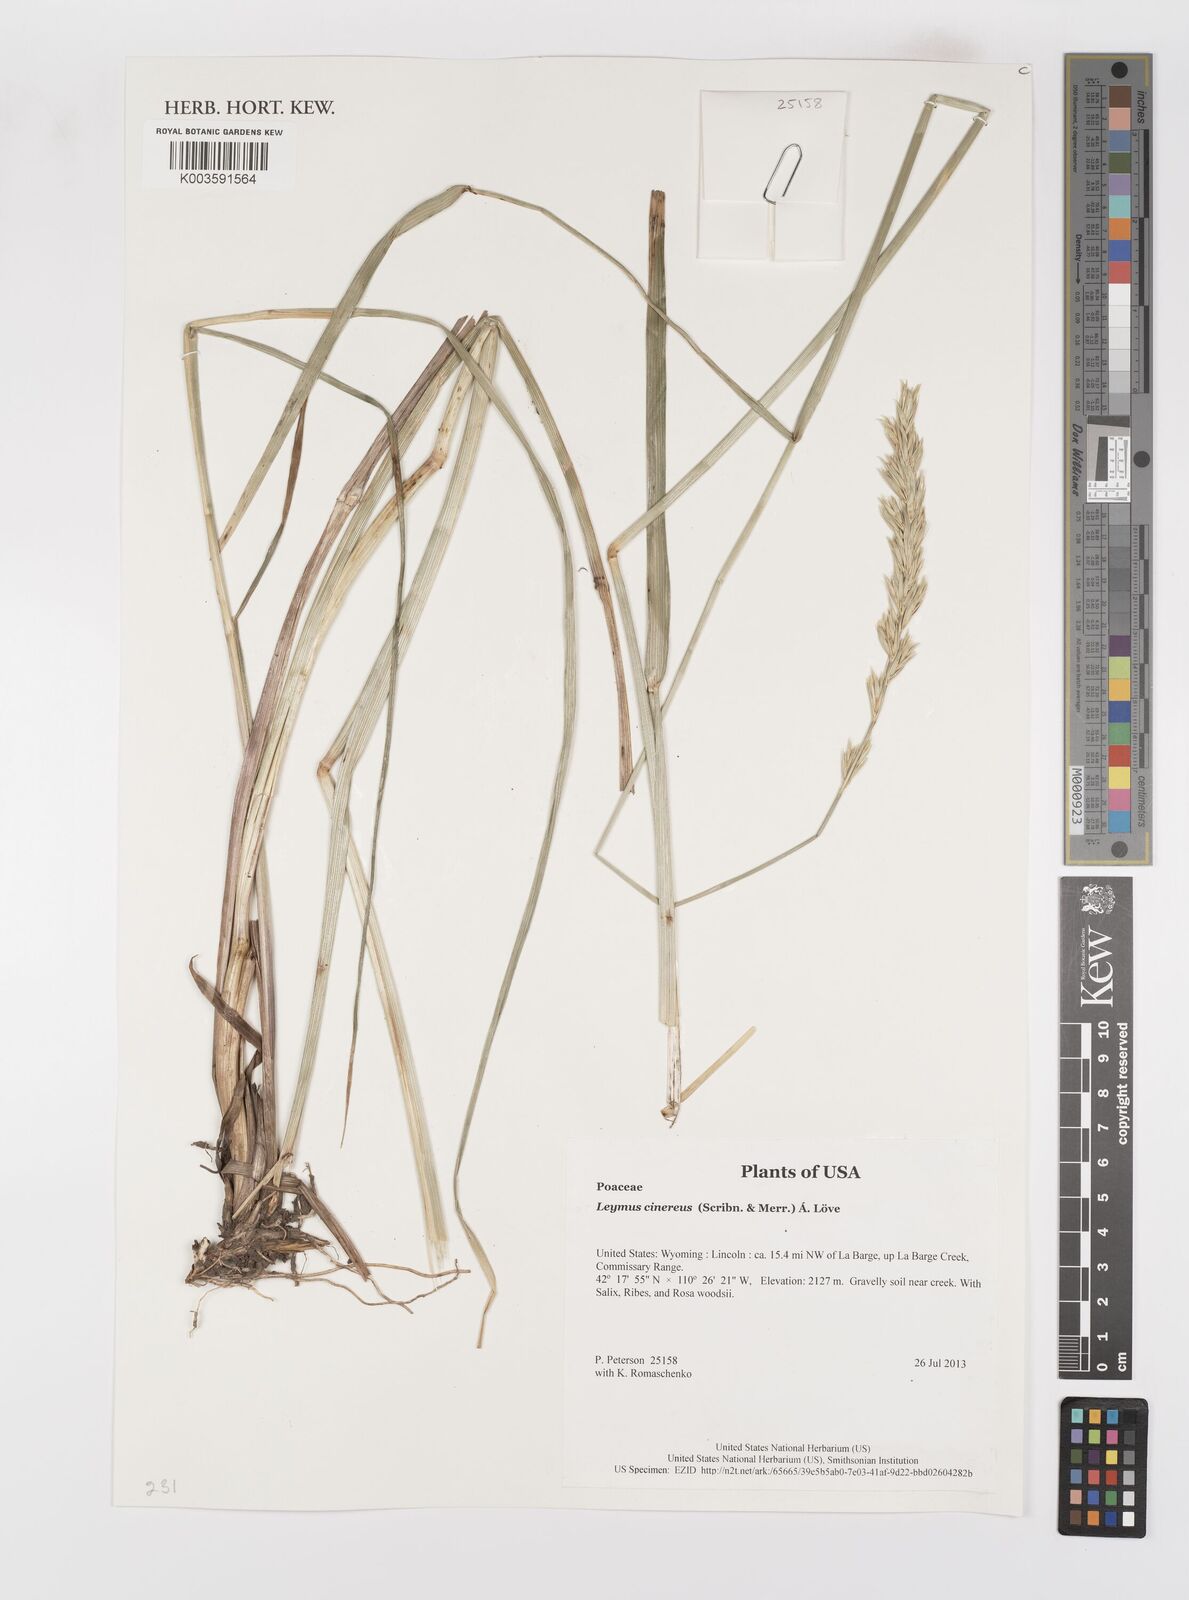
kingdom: Plantae
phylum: Tracheophyta
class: Liliopsida
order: Poales
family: Poaceae
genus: Leymus
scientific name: Leymus cinereus
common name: Basin wild rye
